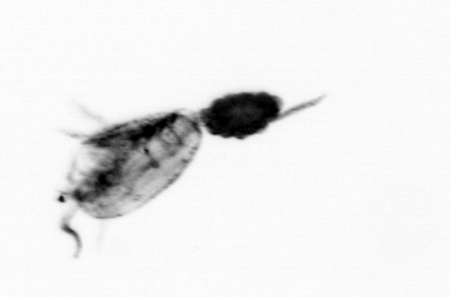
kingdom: Animalia
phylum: Arthropoda
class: Copepoda
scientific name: Copepoda
